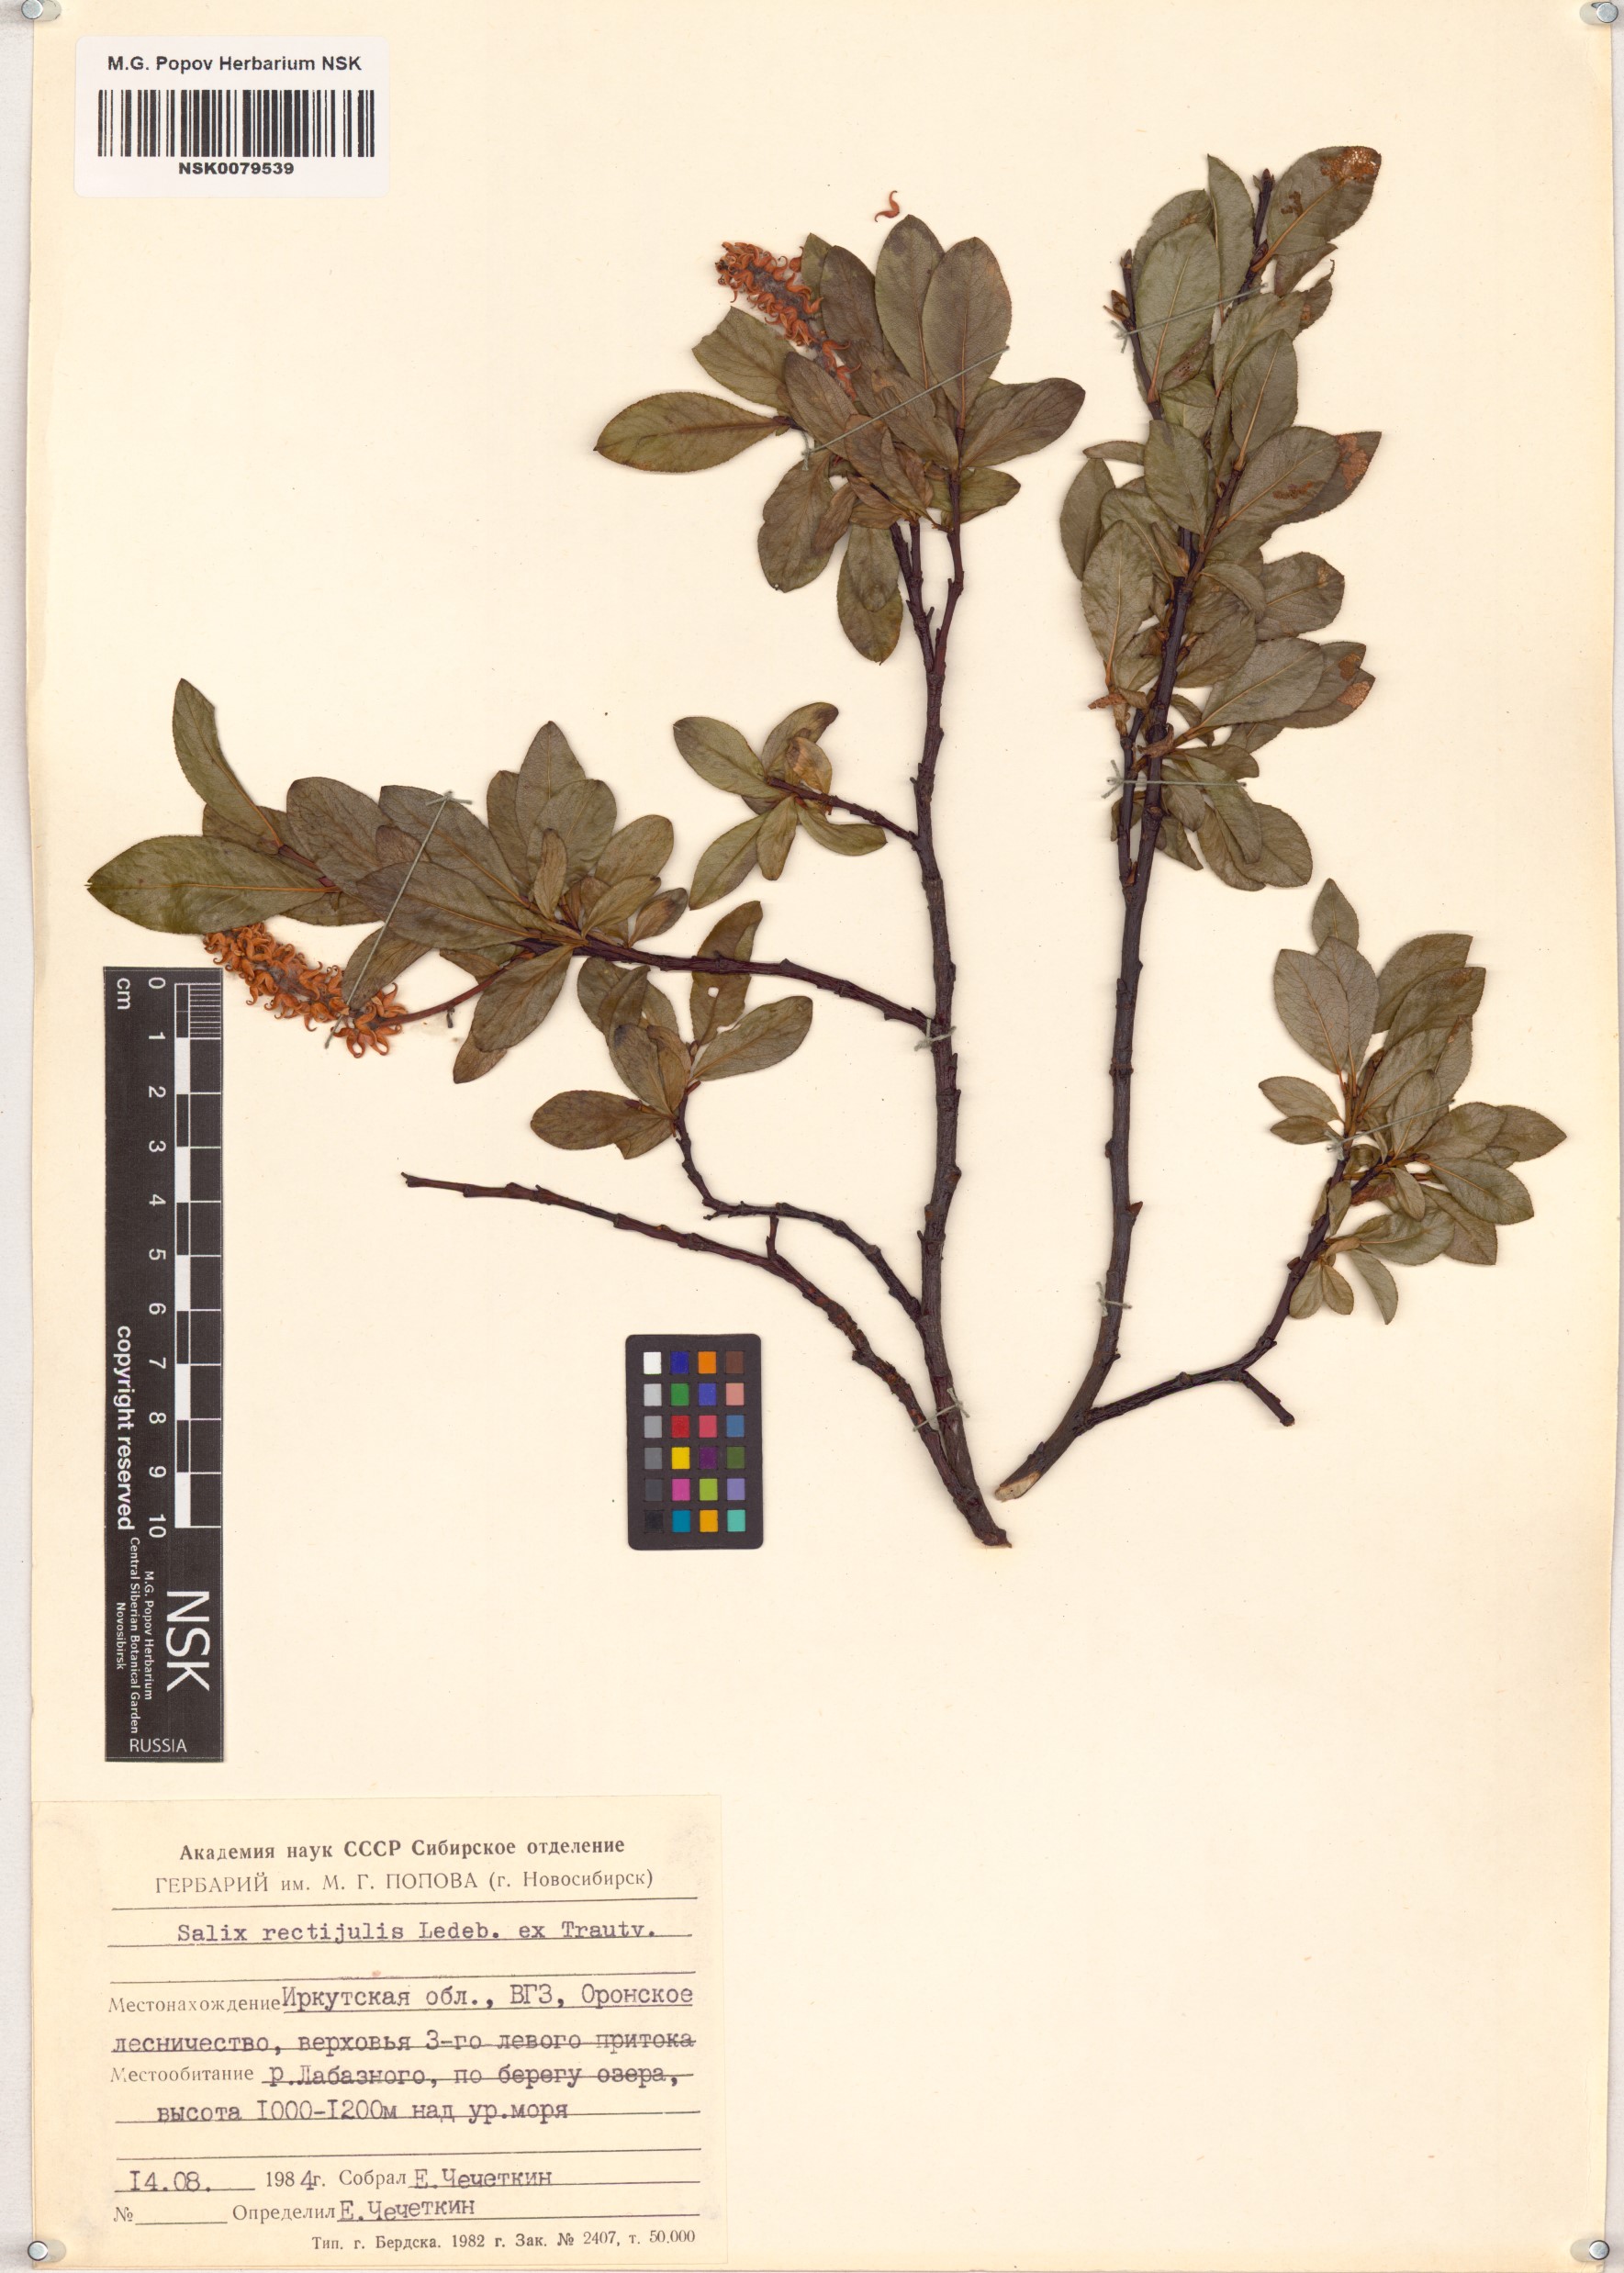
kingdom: Plantae
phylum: Tracheophyta
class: Magnoliopsida
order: Malpighiales
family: Salicaceae
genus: Salix
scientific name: Salix rectijulis
